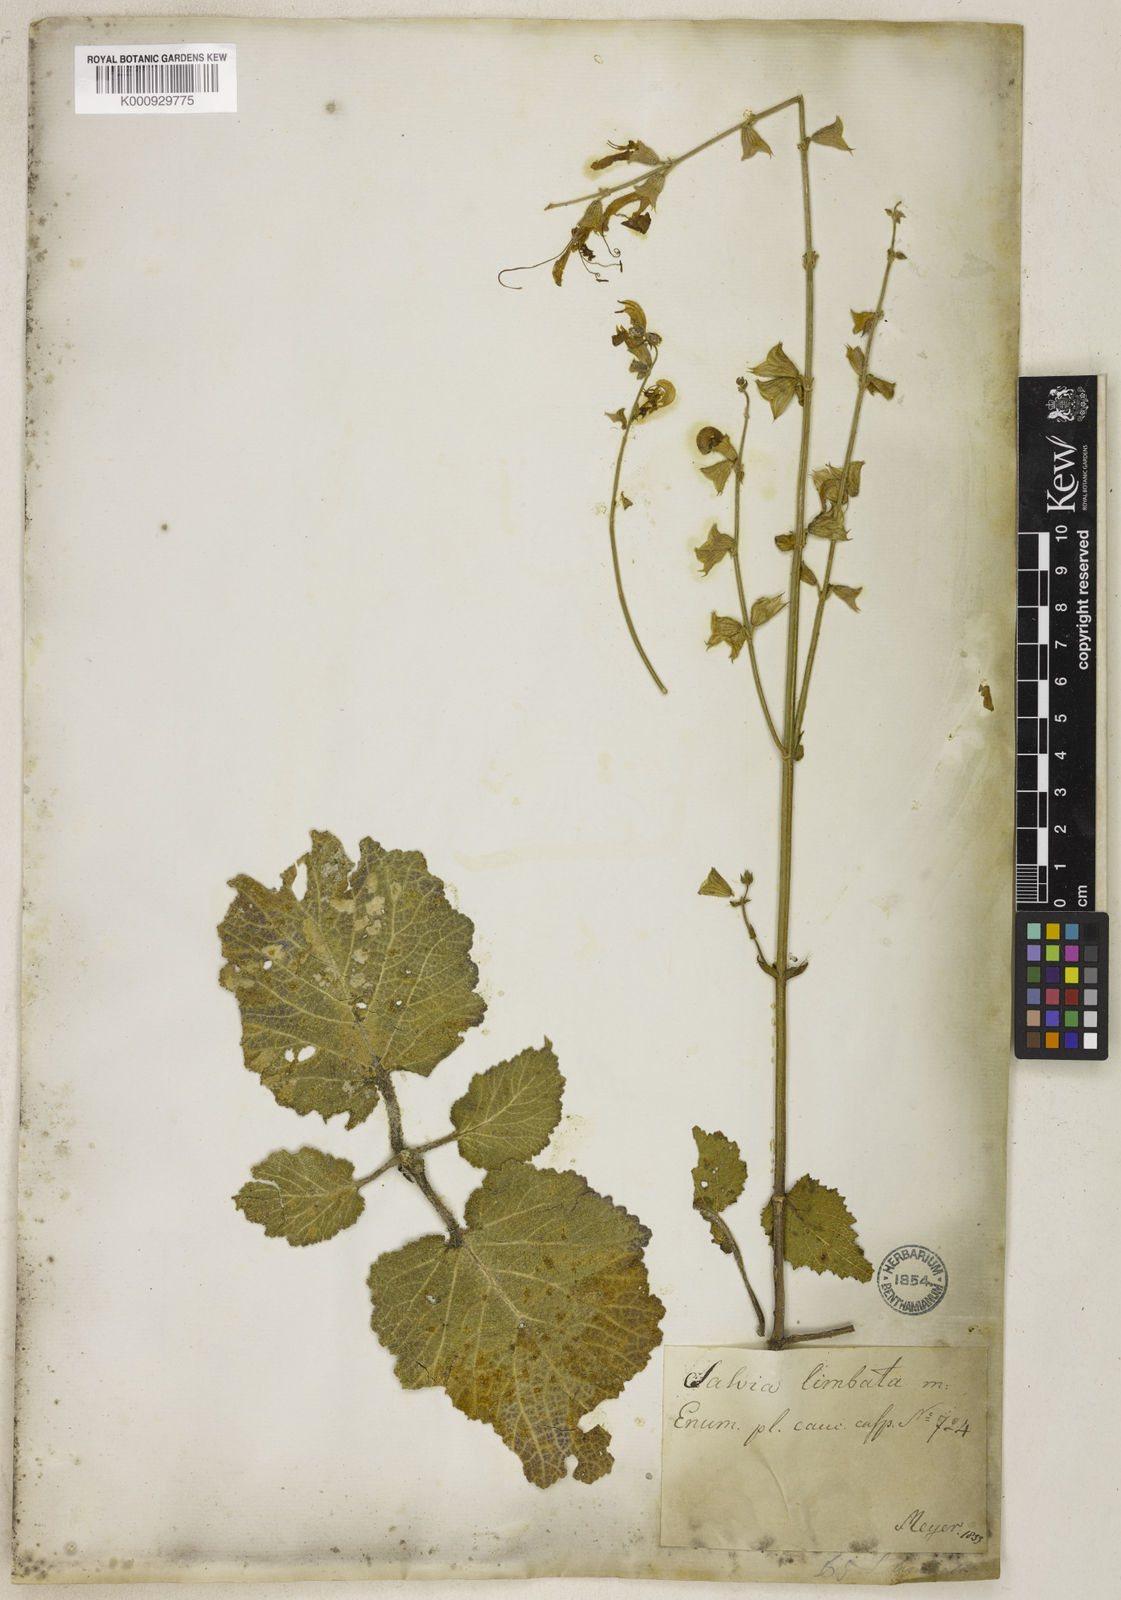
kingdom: Plantae
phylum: Tracheophyta
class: Magnoliopsida
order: Lamiales
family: Lamiaceae
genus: Salvia
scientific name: Salvia limbata
